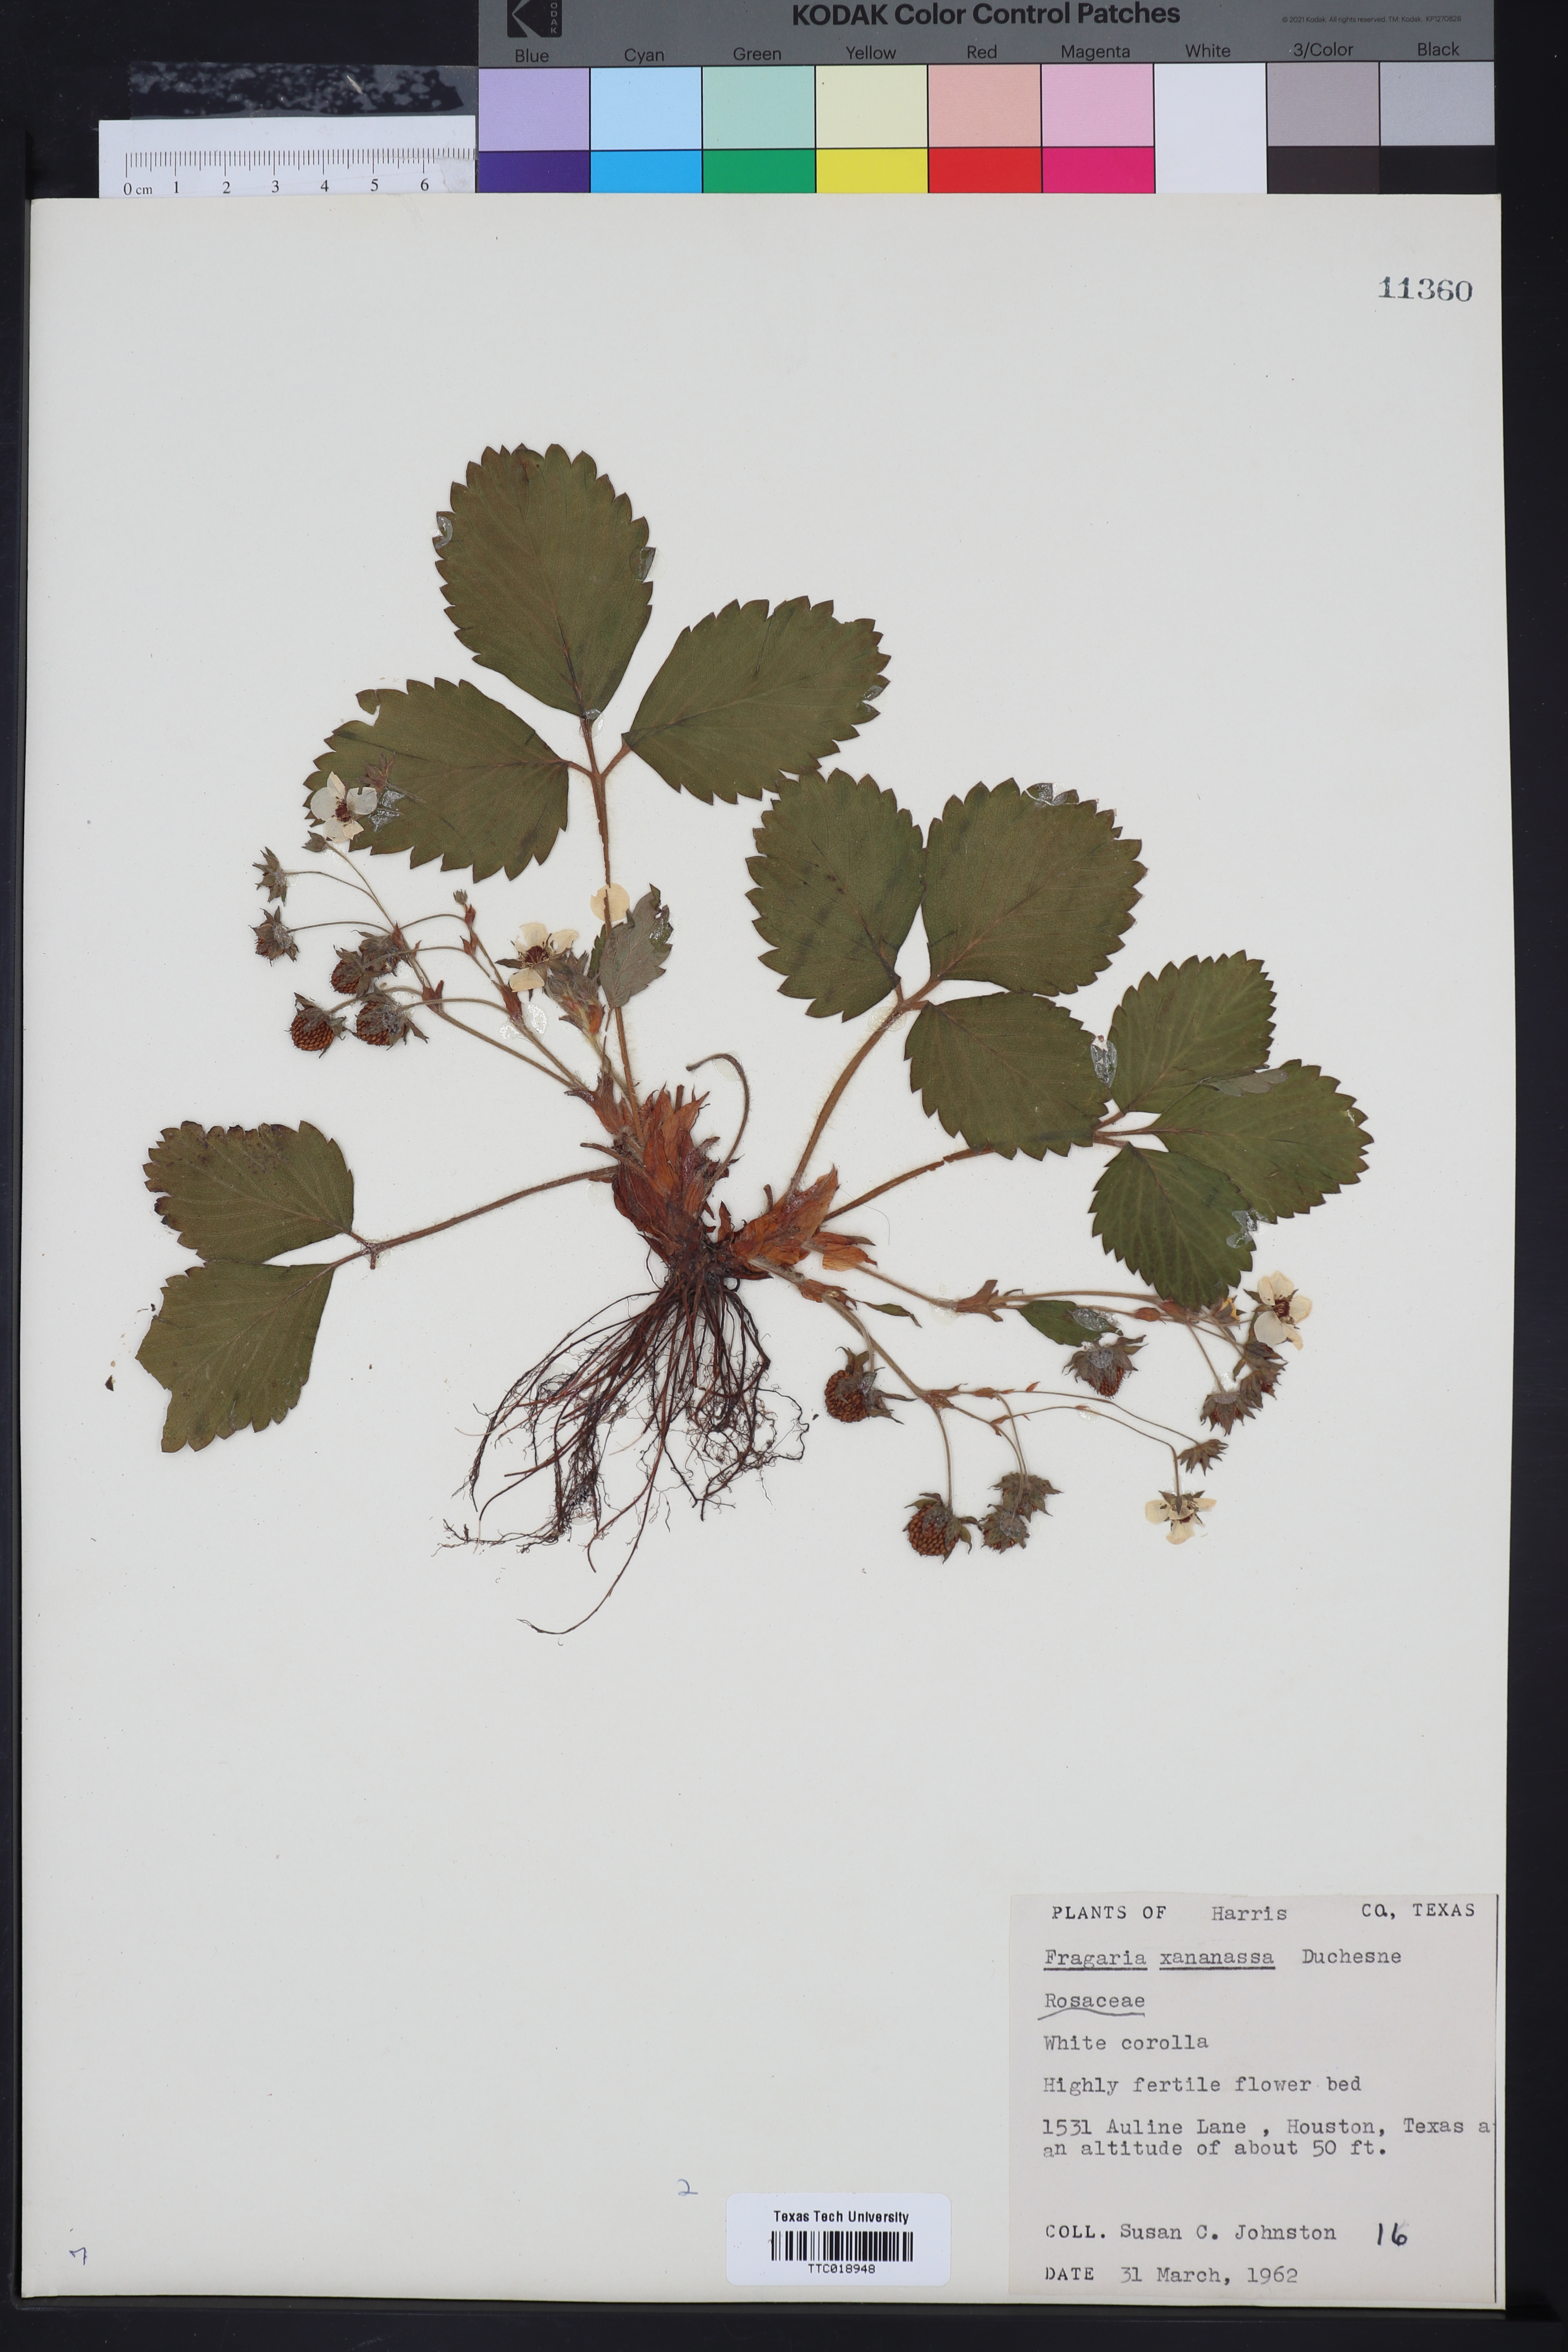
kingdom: Plantae
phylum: Tracheophyta
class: Magnoliopsida
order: Rosales
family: Rosaceae
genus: Fragaria
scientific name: Fragaria ananassa
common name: Garden strawberry
